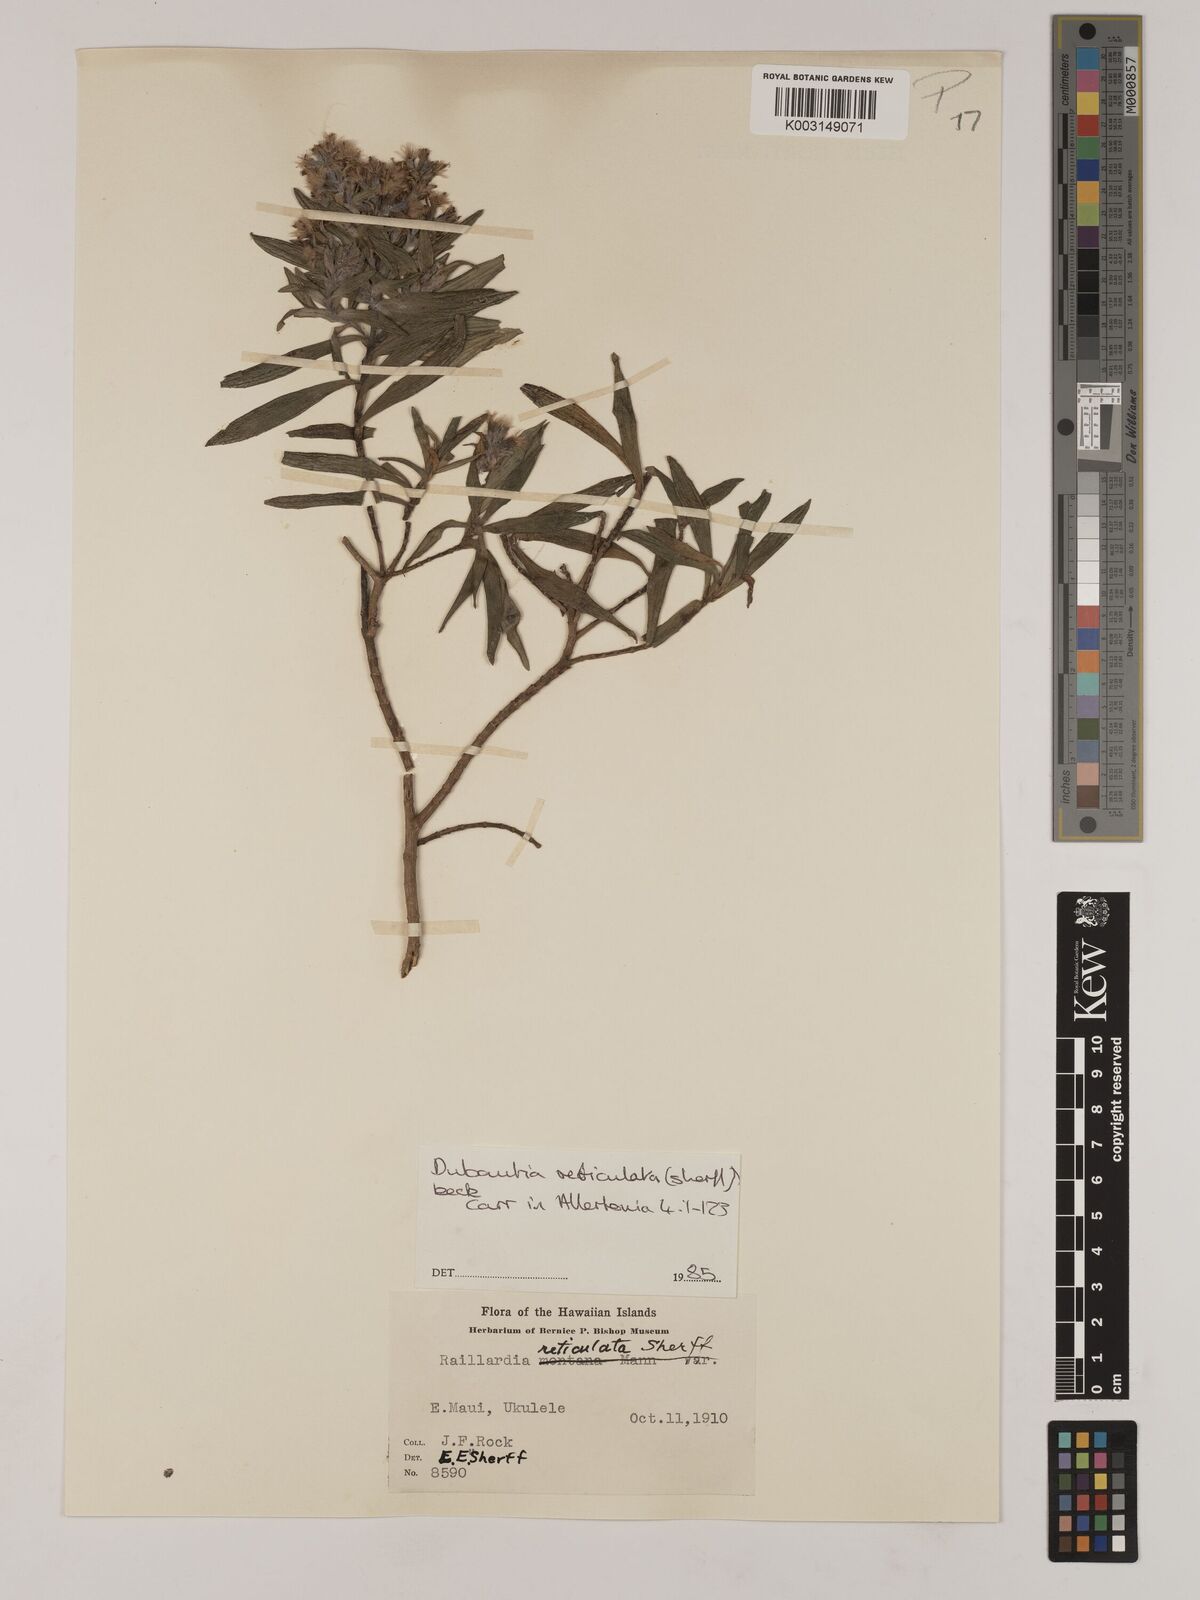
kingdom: Plantae
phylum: Tracheophyta
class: Magnoliopsida
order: Asterales
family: Asteraceae
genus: Dubautia
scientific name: Dubautia reticulata
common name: Net-veined dubautia
